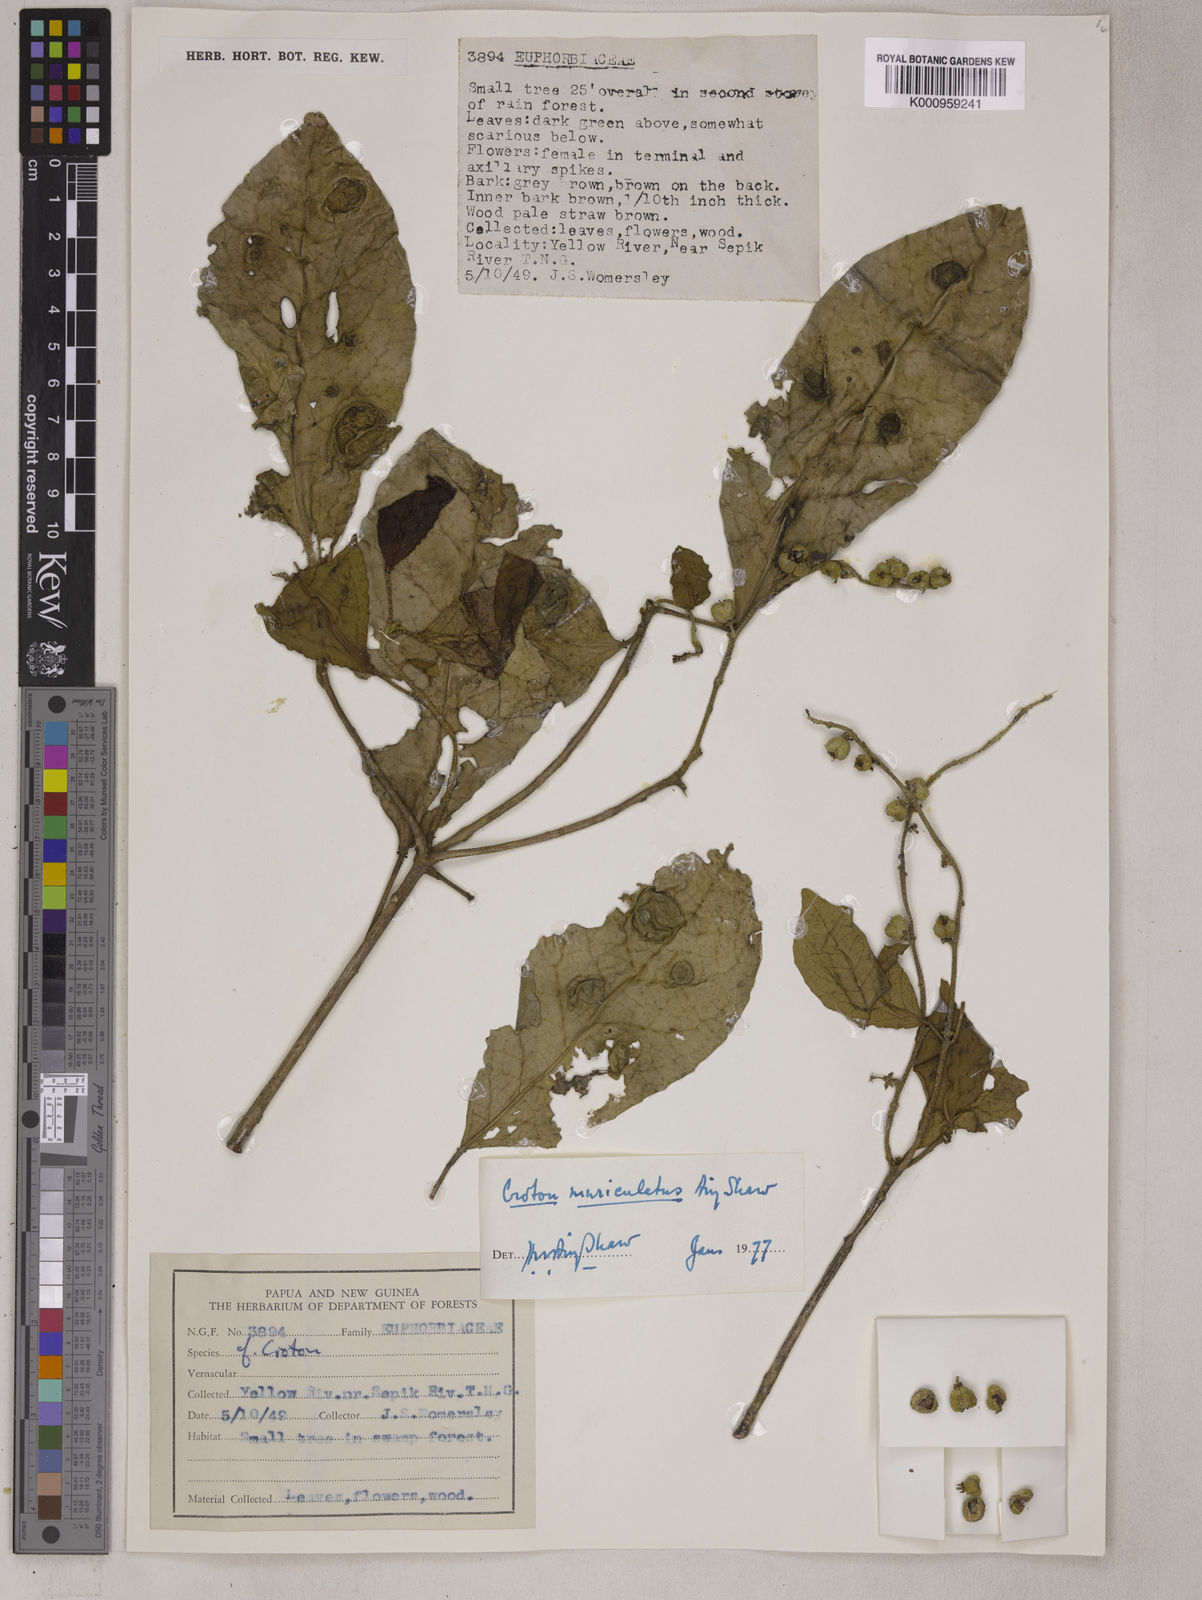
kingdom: Plantae
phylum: Tracheophyta
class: Magnoliopsida
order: Malpighiales
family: Euphorbiaceae
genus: Croton
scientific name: Croton muriculatus
